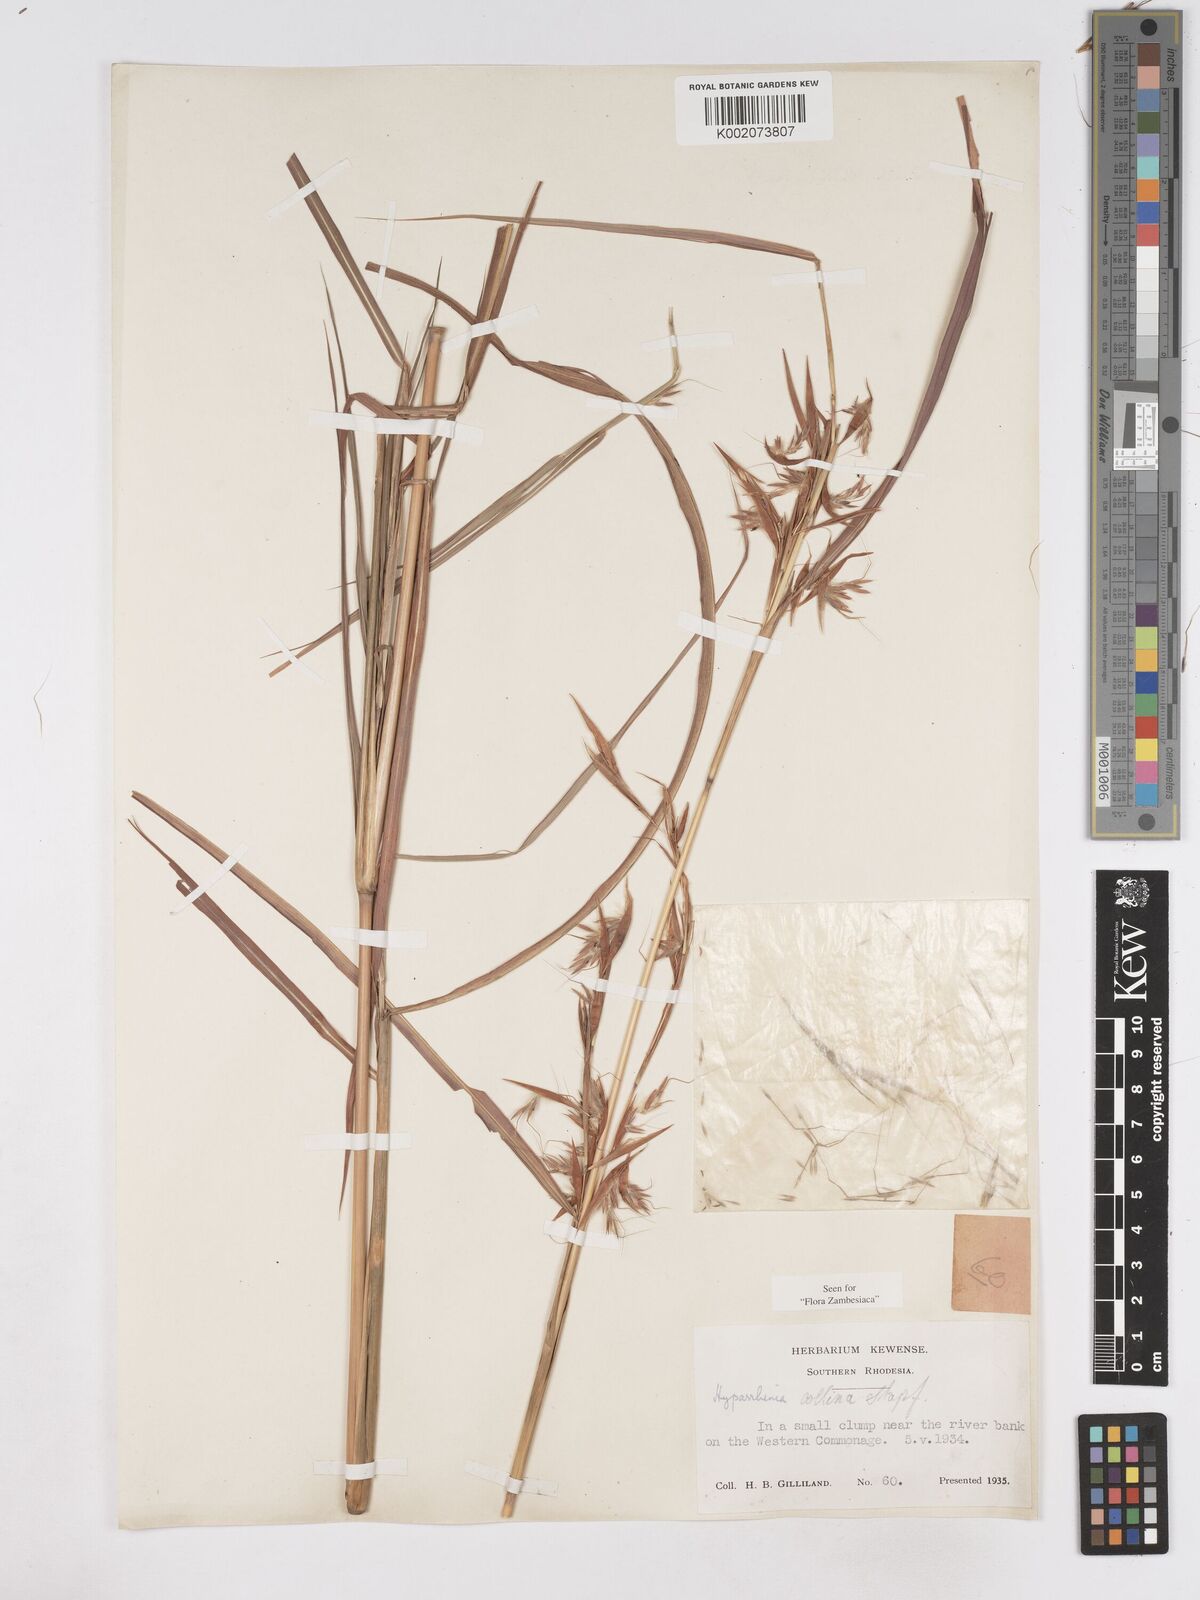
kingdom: Plantae
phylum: Tracheophyta
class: Liliopsida
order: Poales
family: Poaceae
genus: Hyparrhenia
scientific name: Hyparrhenia collina
